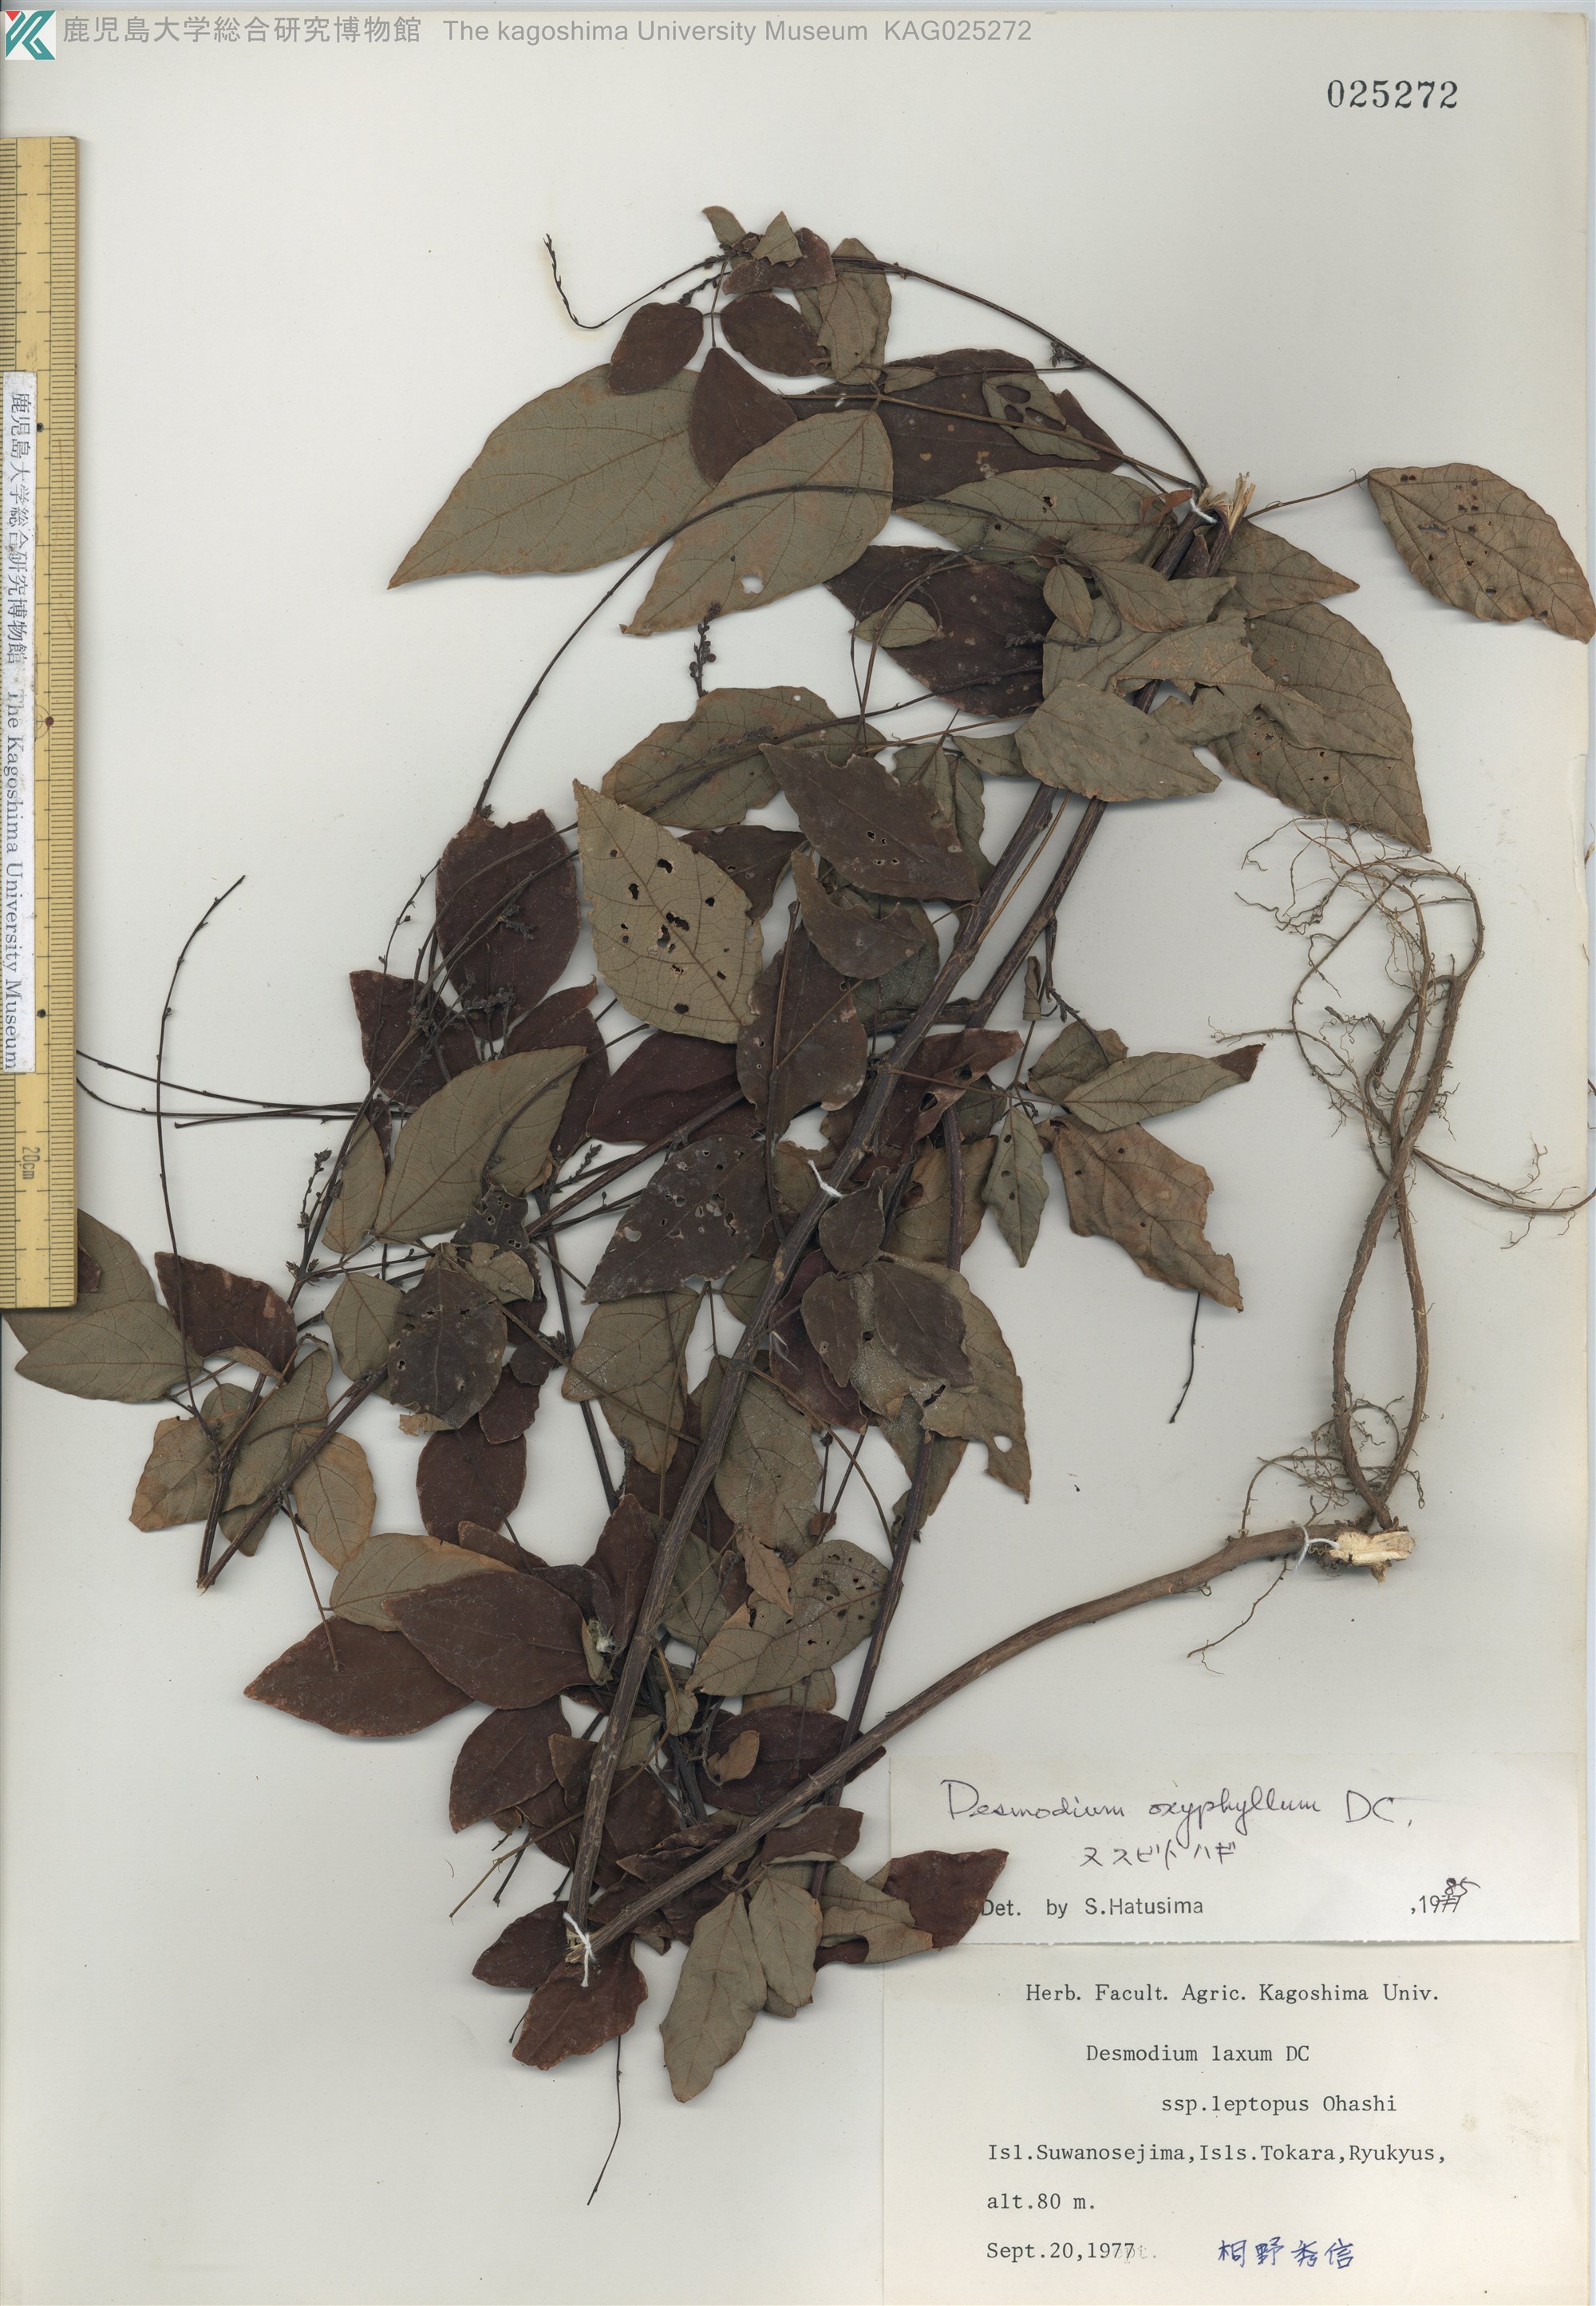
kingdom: Plantae
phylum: Tracheophyta
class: Magnoliopsida
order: Fabales
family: Fabaceae
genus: Hylodesmum
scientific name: Hylodesmum podocarpum
